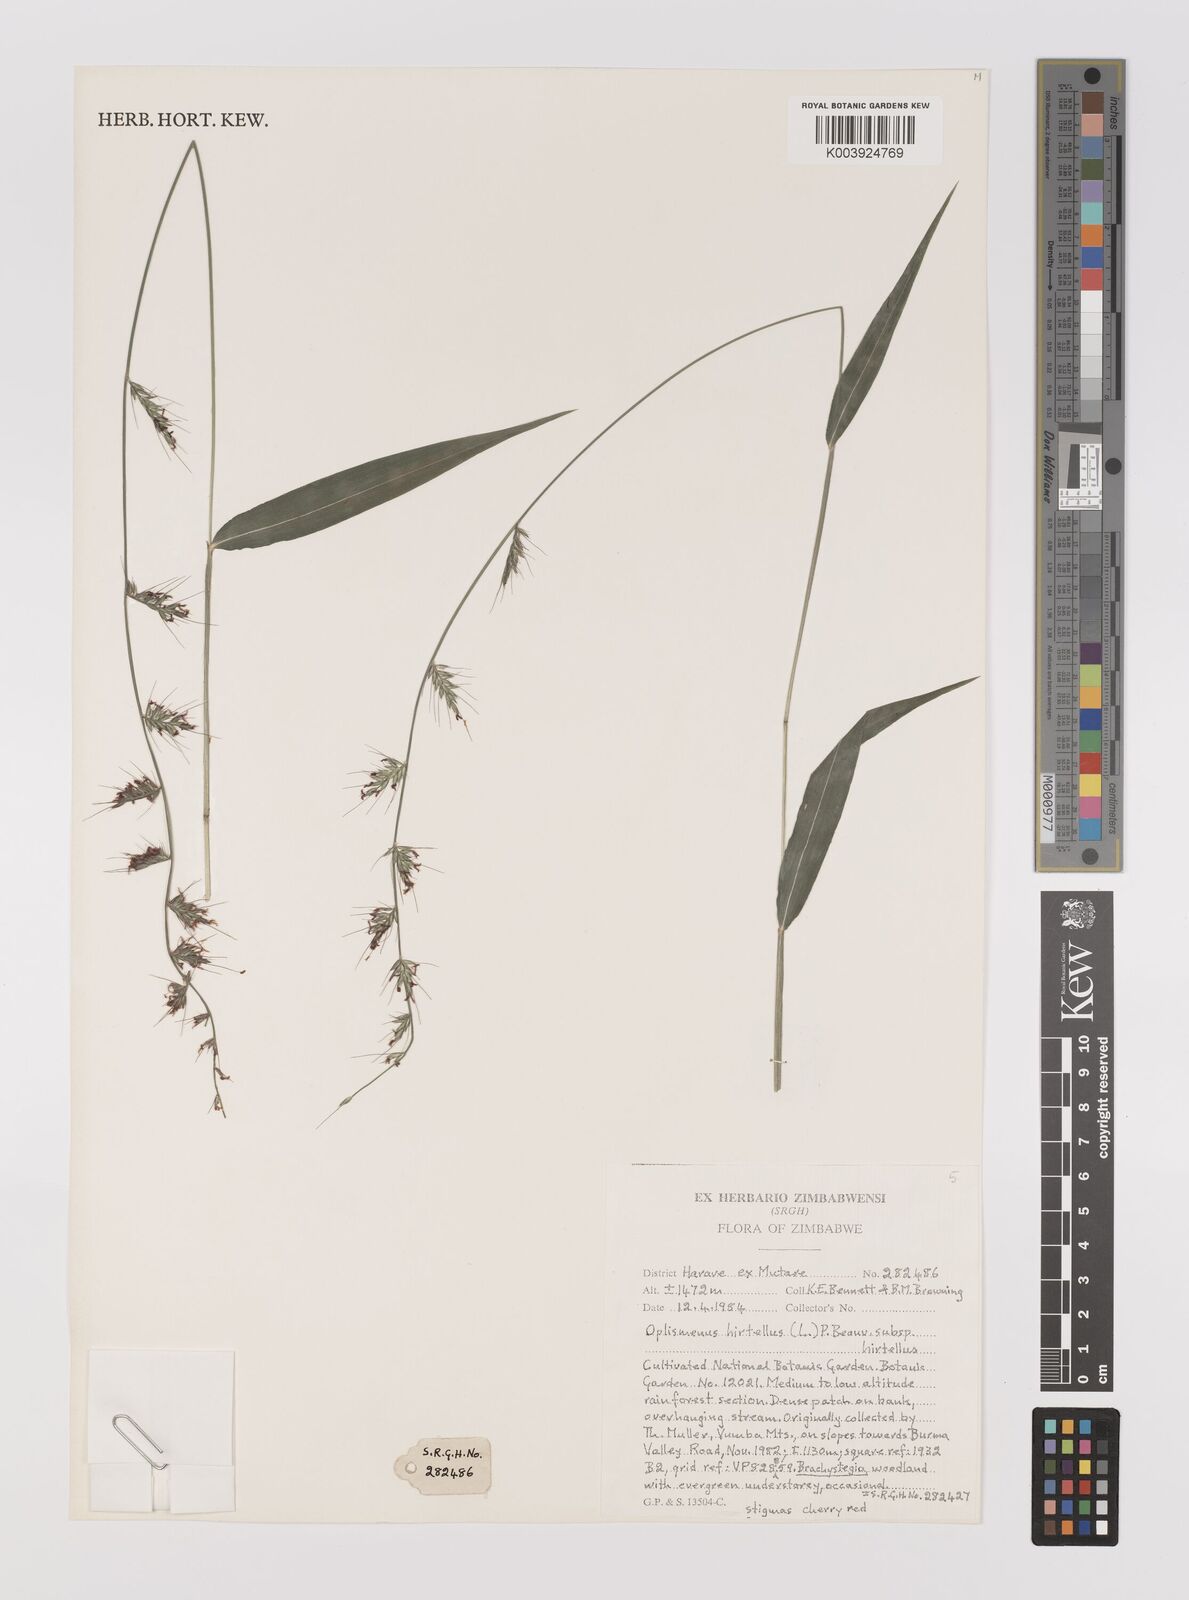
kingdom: Plantae
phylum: Tracheophyta
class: Liliopsida
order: Poales
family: Poaceae
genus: Oplismenus
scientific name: Oplismenus hirtellus
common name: Basketgrass
